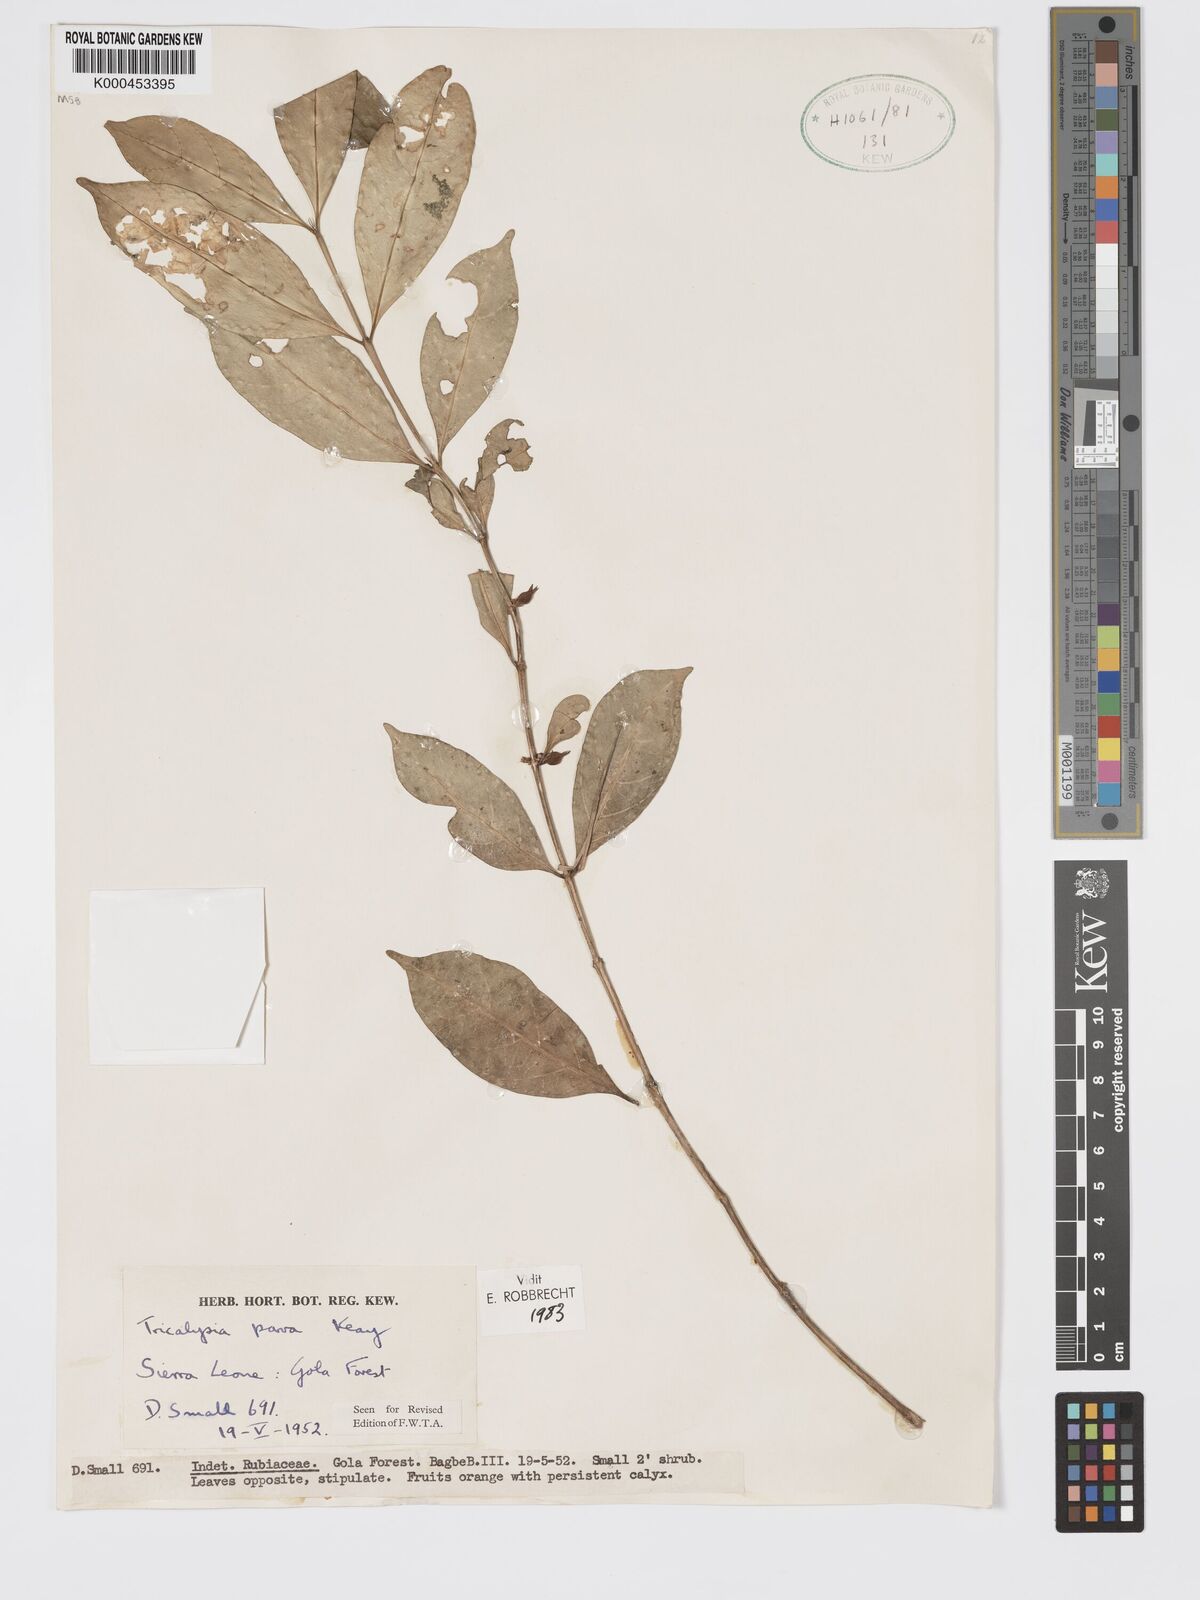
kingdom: Plantae
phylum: Tracheophyta
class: Magnoliopsida
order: Gentianales
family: Rubiaceae
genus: Tricalysia
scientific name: Tricalysia parva
